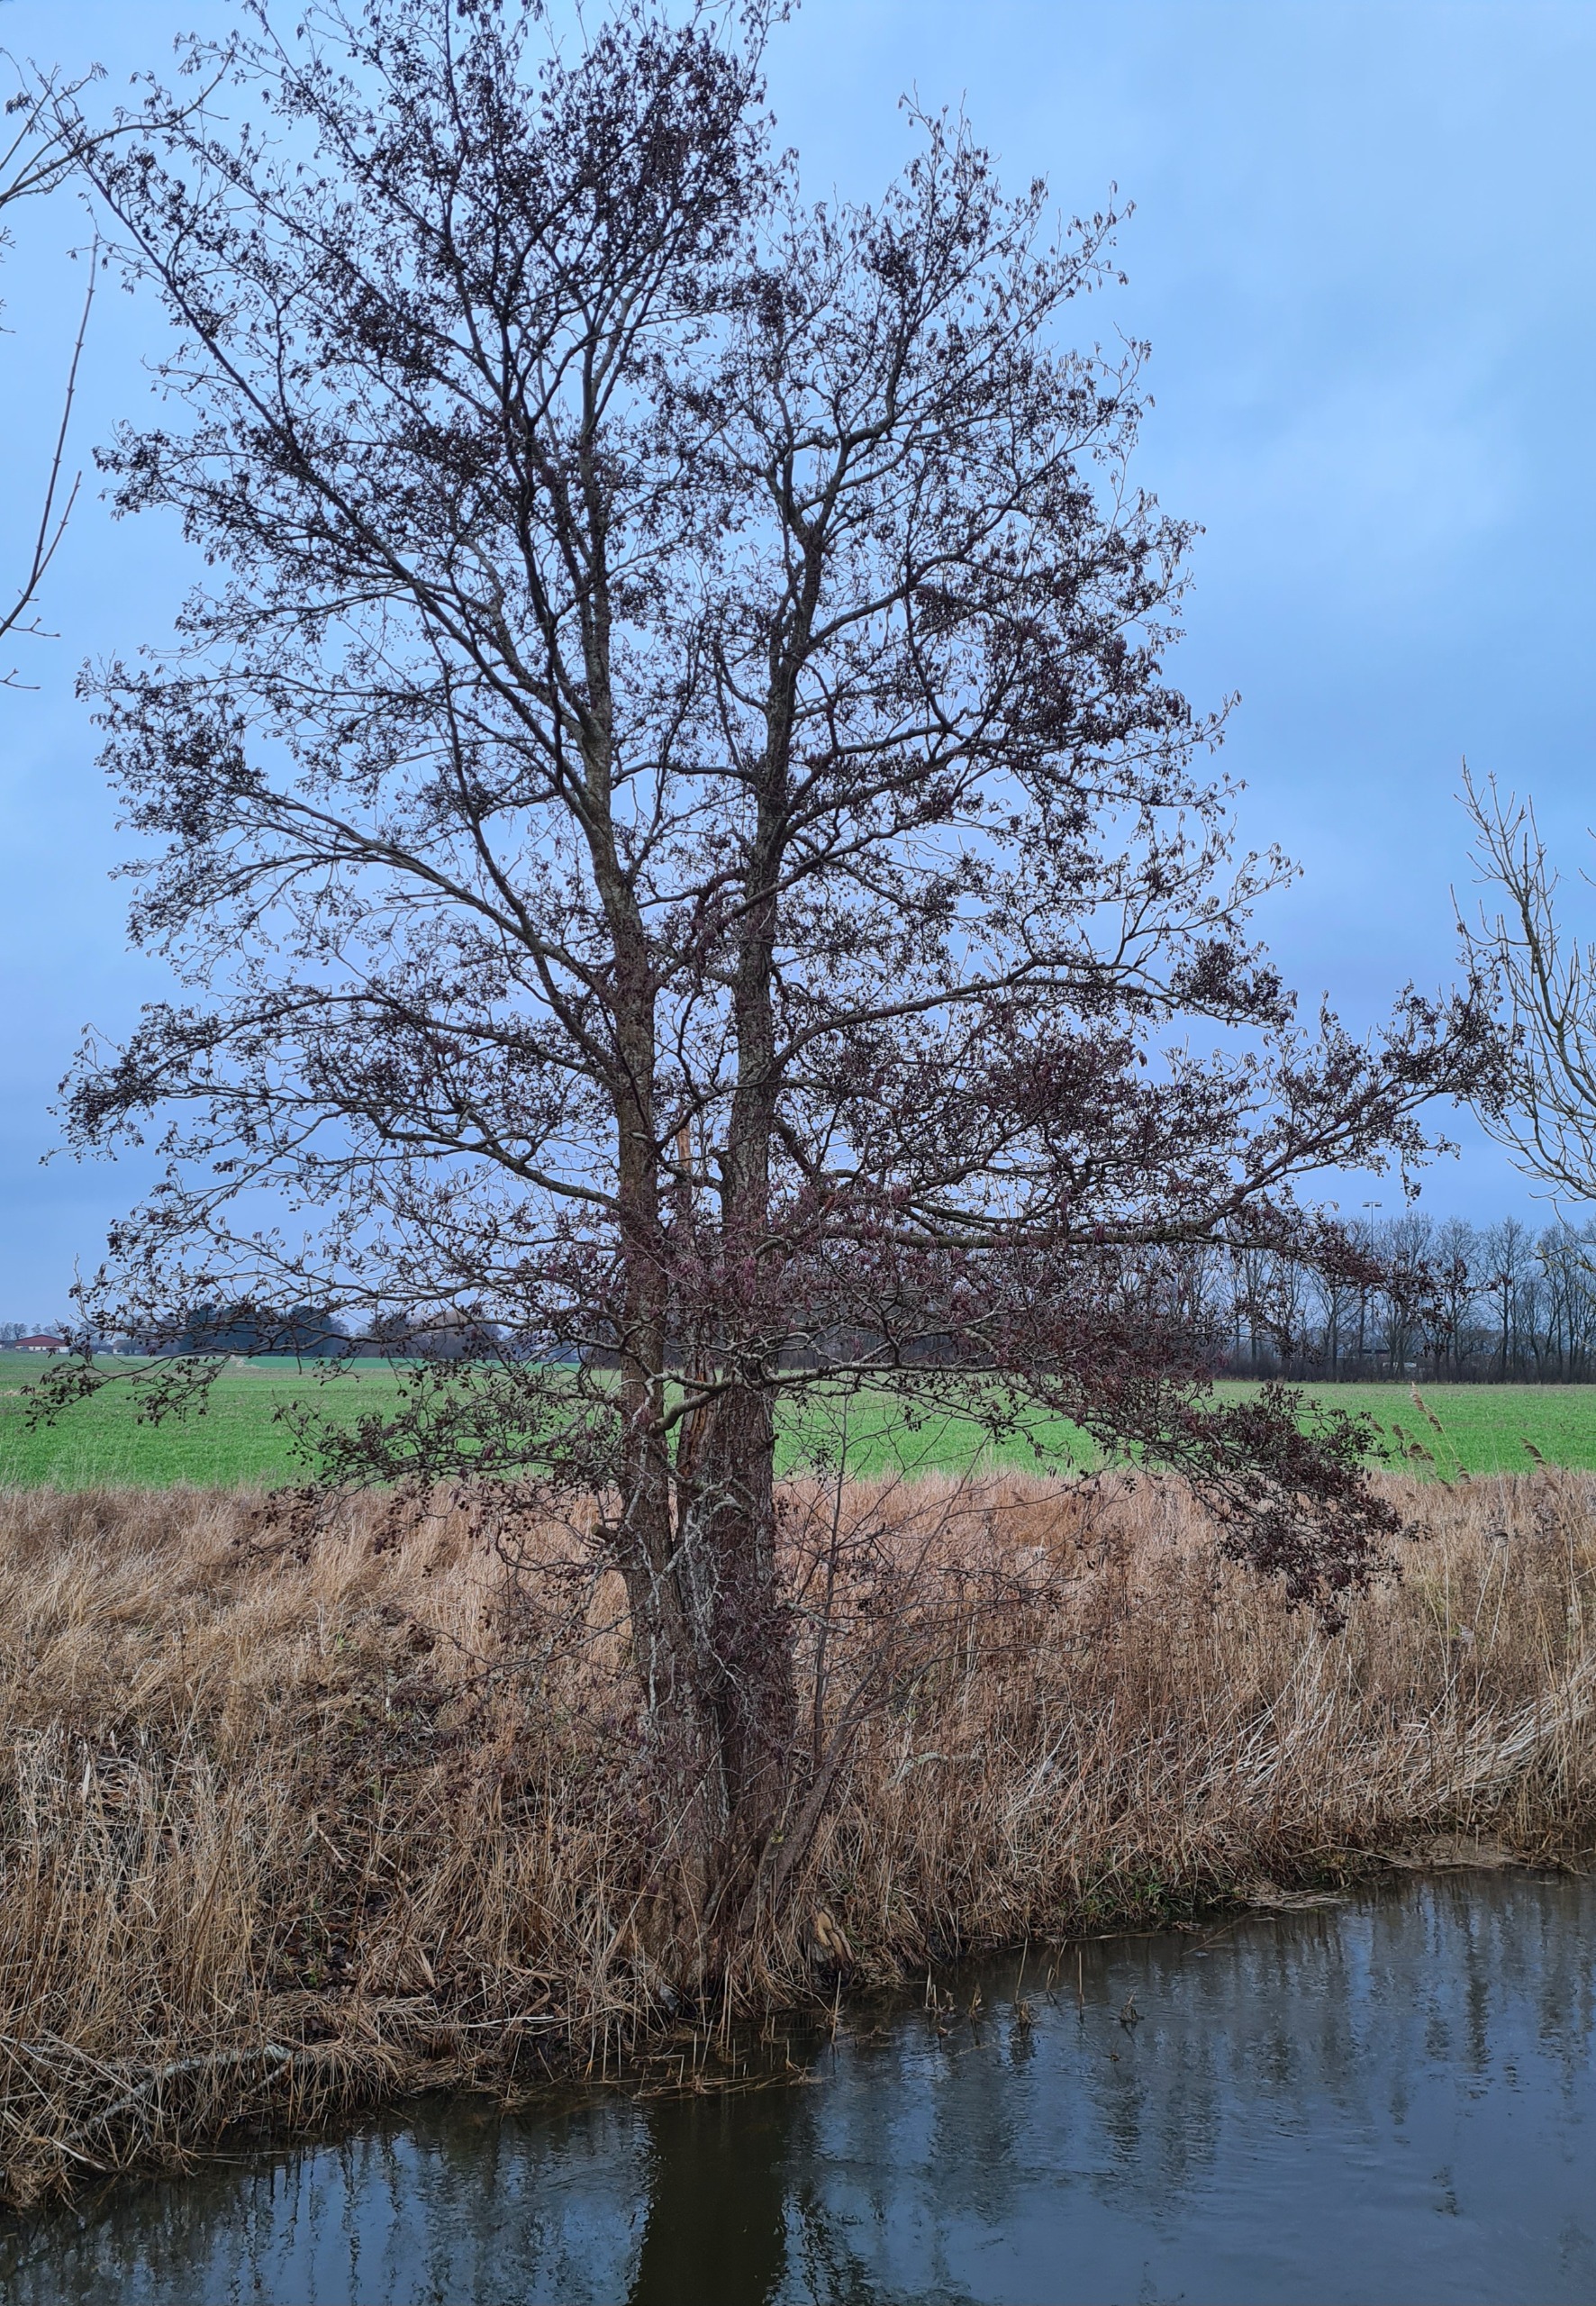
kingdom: Plantae
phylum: Tracheophyta
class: Magnoliopsida
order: Fagales
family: Betulaceae
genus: Alnus
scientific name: Alnus glutinosa
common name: Rød-el
